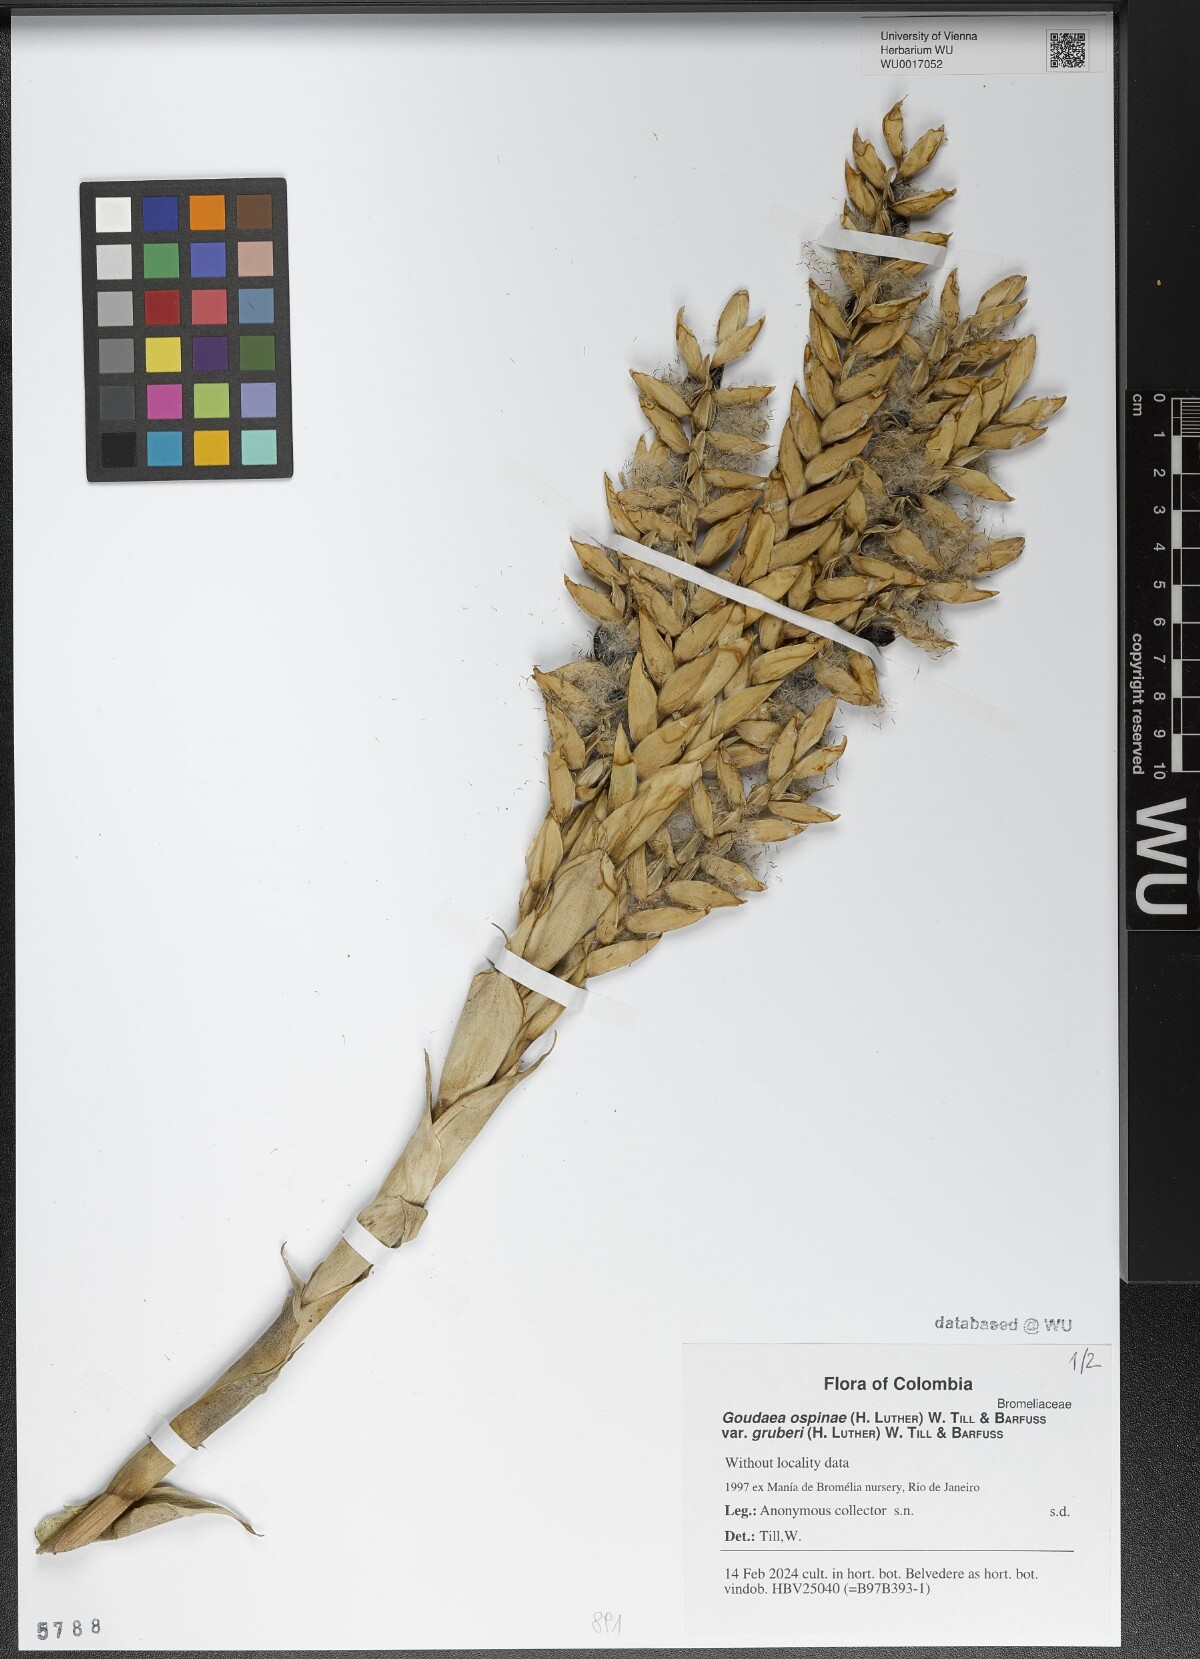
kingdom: Plantae
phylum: Tracheophyta
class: Liliopsida
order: Poales
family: Bromeliaceae
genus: Goudaea
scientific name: Goudaea ospinae
